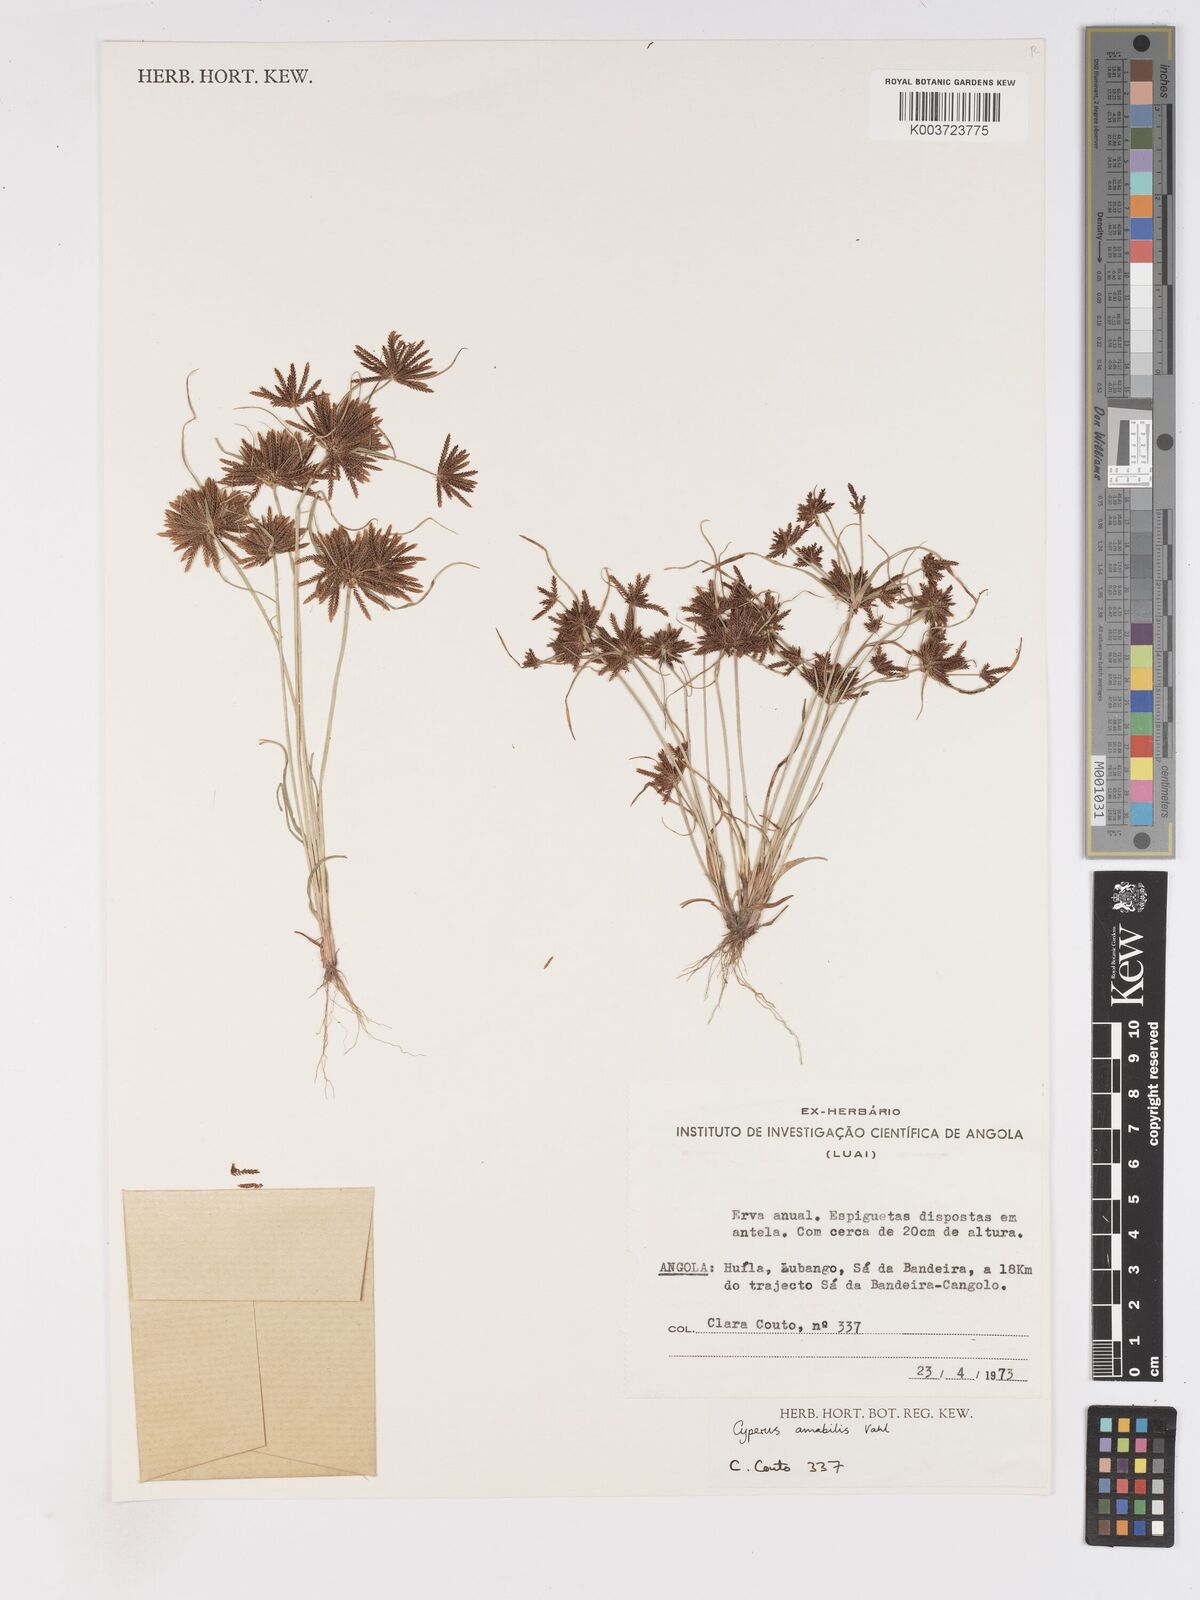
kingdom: Plantae
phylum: Tracheophyta
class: Liliopsida
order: Poales
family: Cyperaceae
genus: Cyperus
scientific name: Cyperus amabilis
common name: Foothill flat sedge
